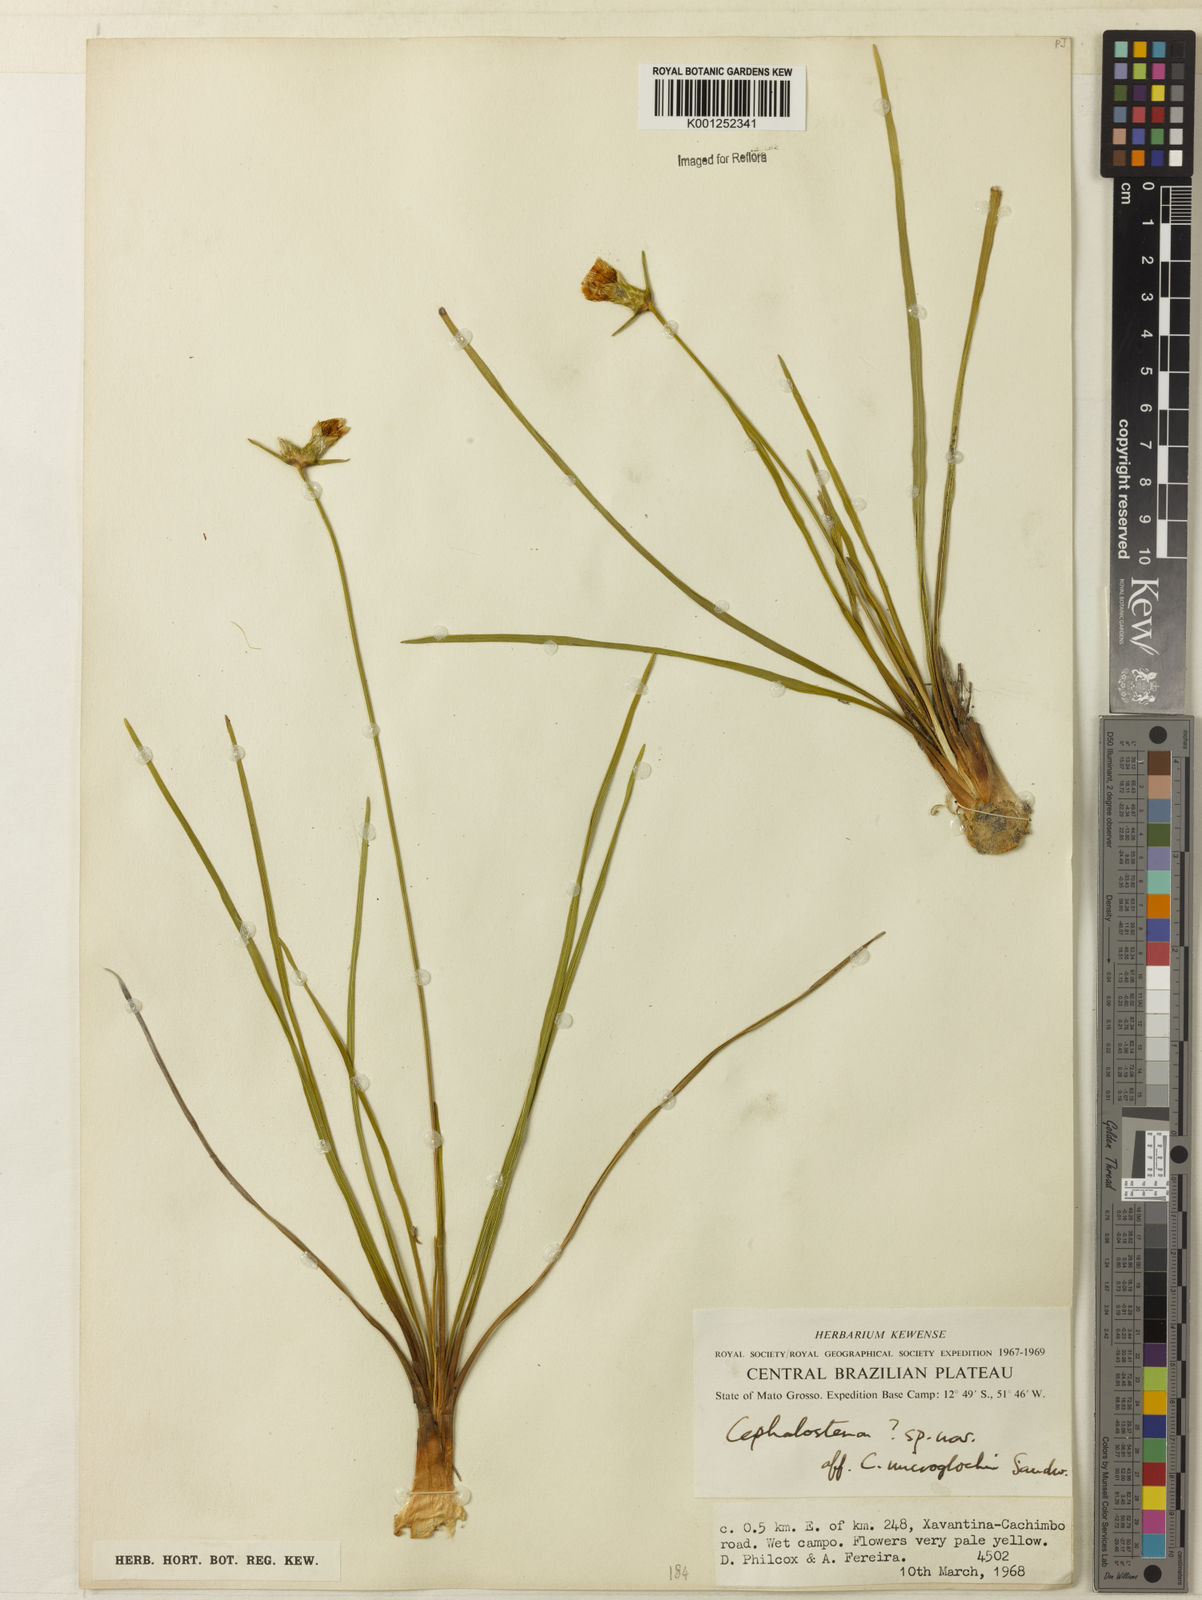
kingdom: Plantae
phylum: Tracheophyta
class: Liliopsida
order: Poales
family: Rapateaceae
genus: Cephalostemon
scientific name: Cephalostemon microglochin
